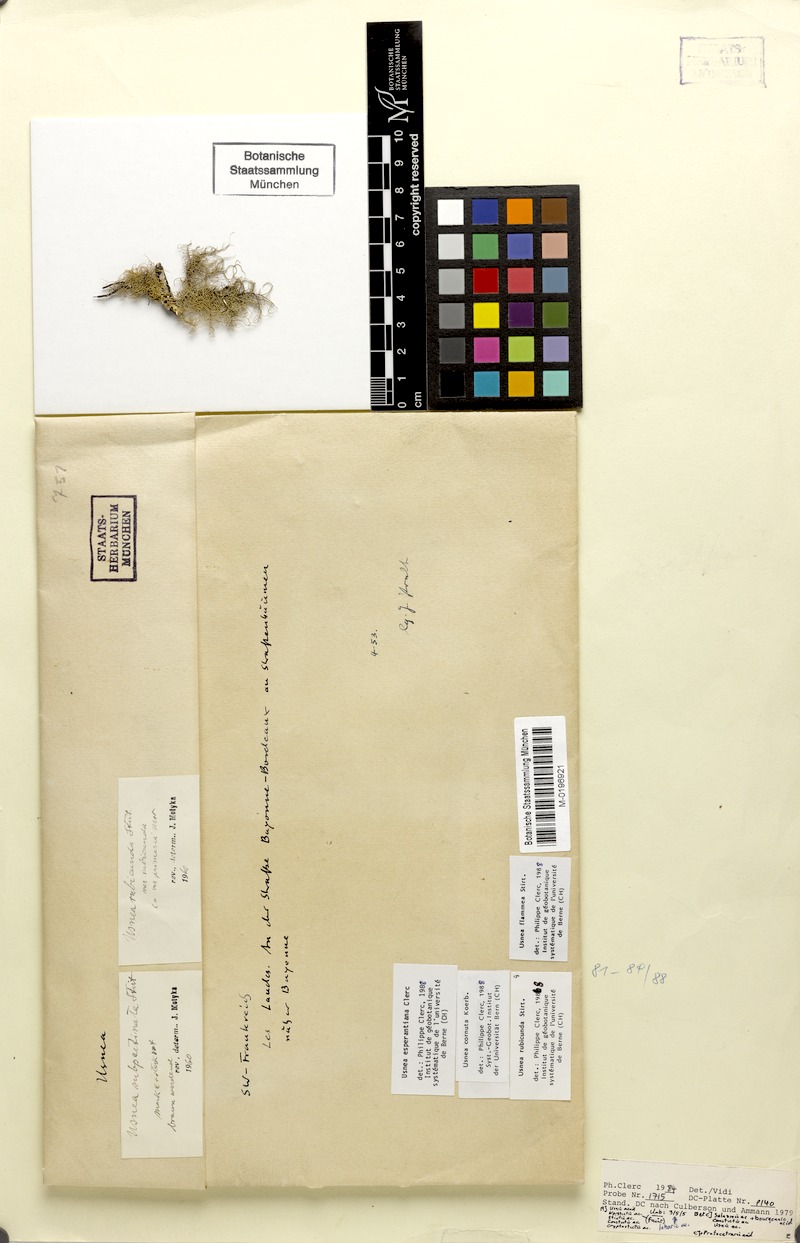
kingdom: Fungi
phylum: Ascomycota
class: Lecanoromycetes
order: Lecanorales
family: Parmeliaceae
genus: Usnea
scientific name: Usnea esperantiana
